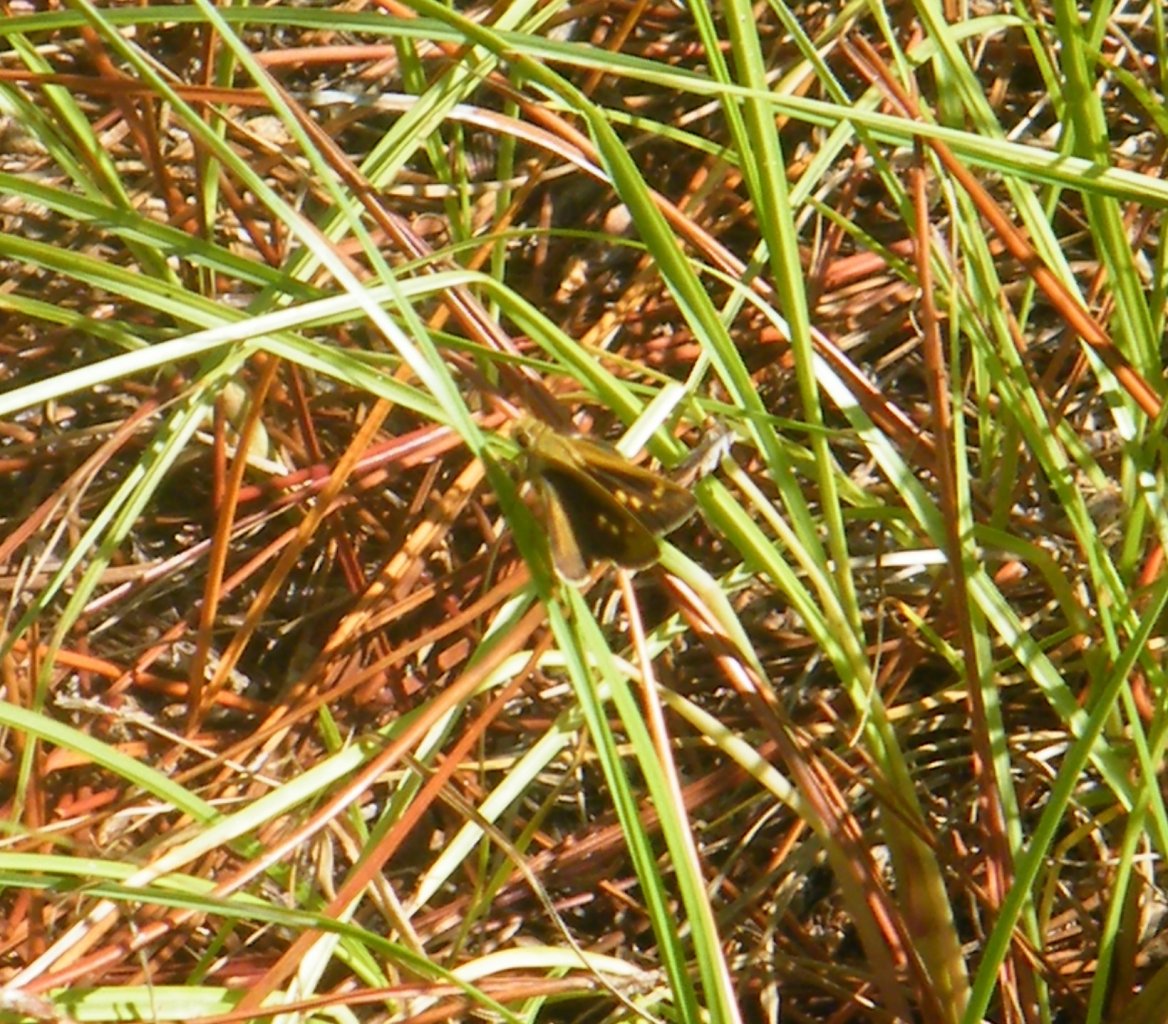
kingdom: Animalia
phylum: Arthropoda
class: Insecta
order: Lepidoptera
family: Hesperiidae
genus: Polites
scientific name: Polites vibex
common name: Whirlabout
